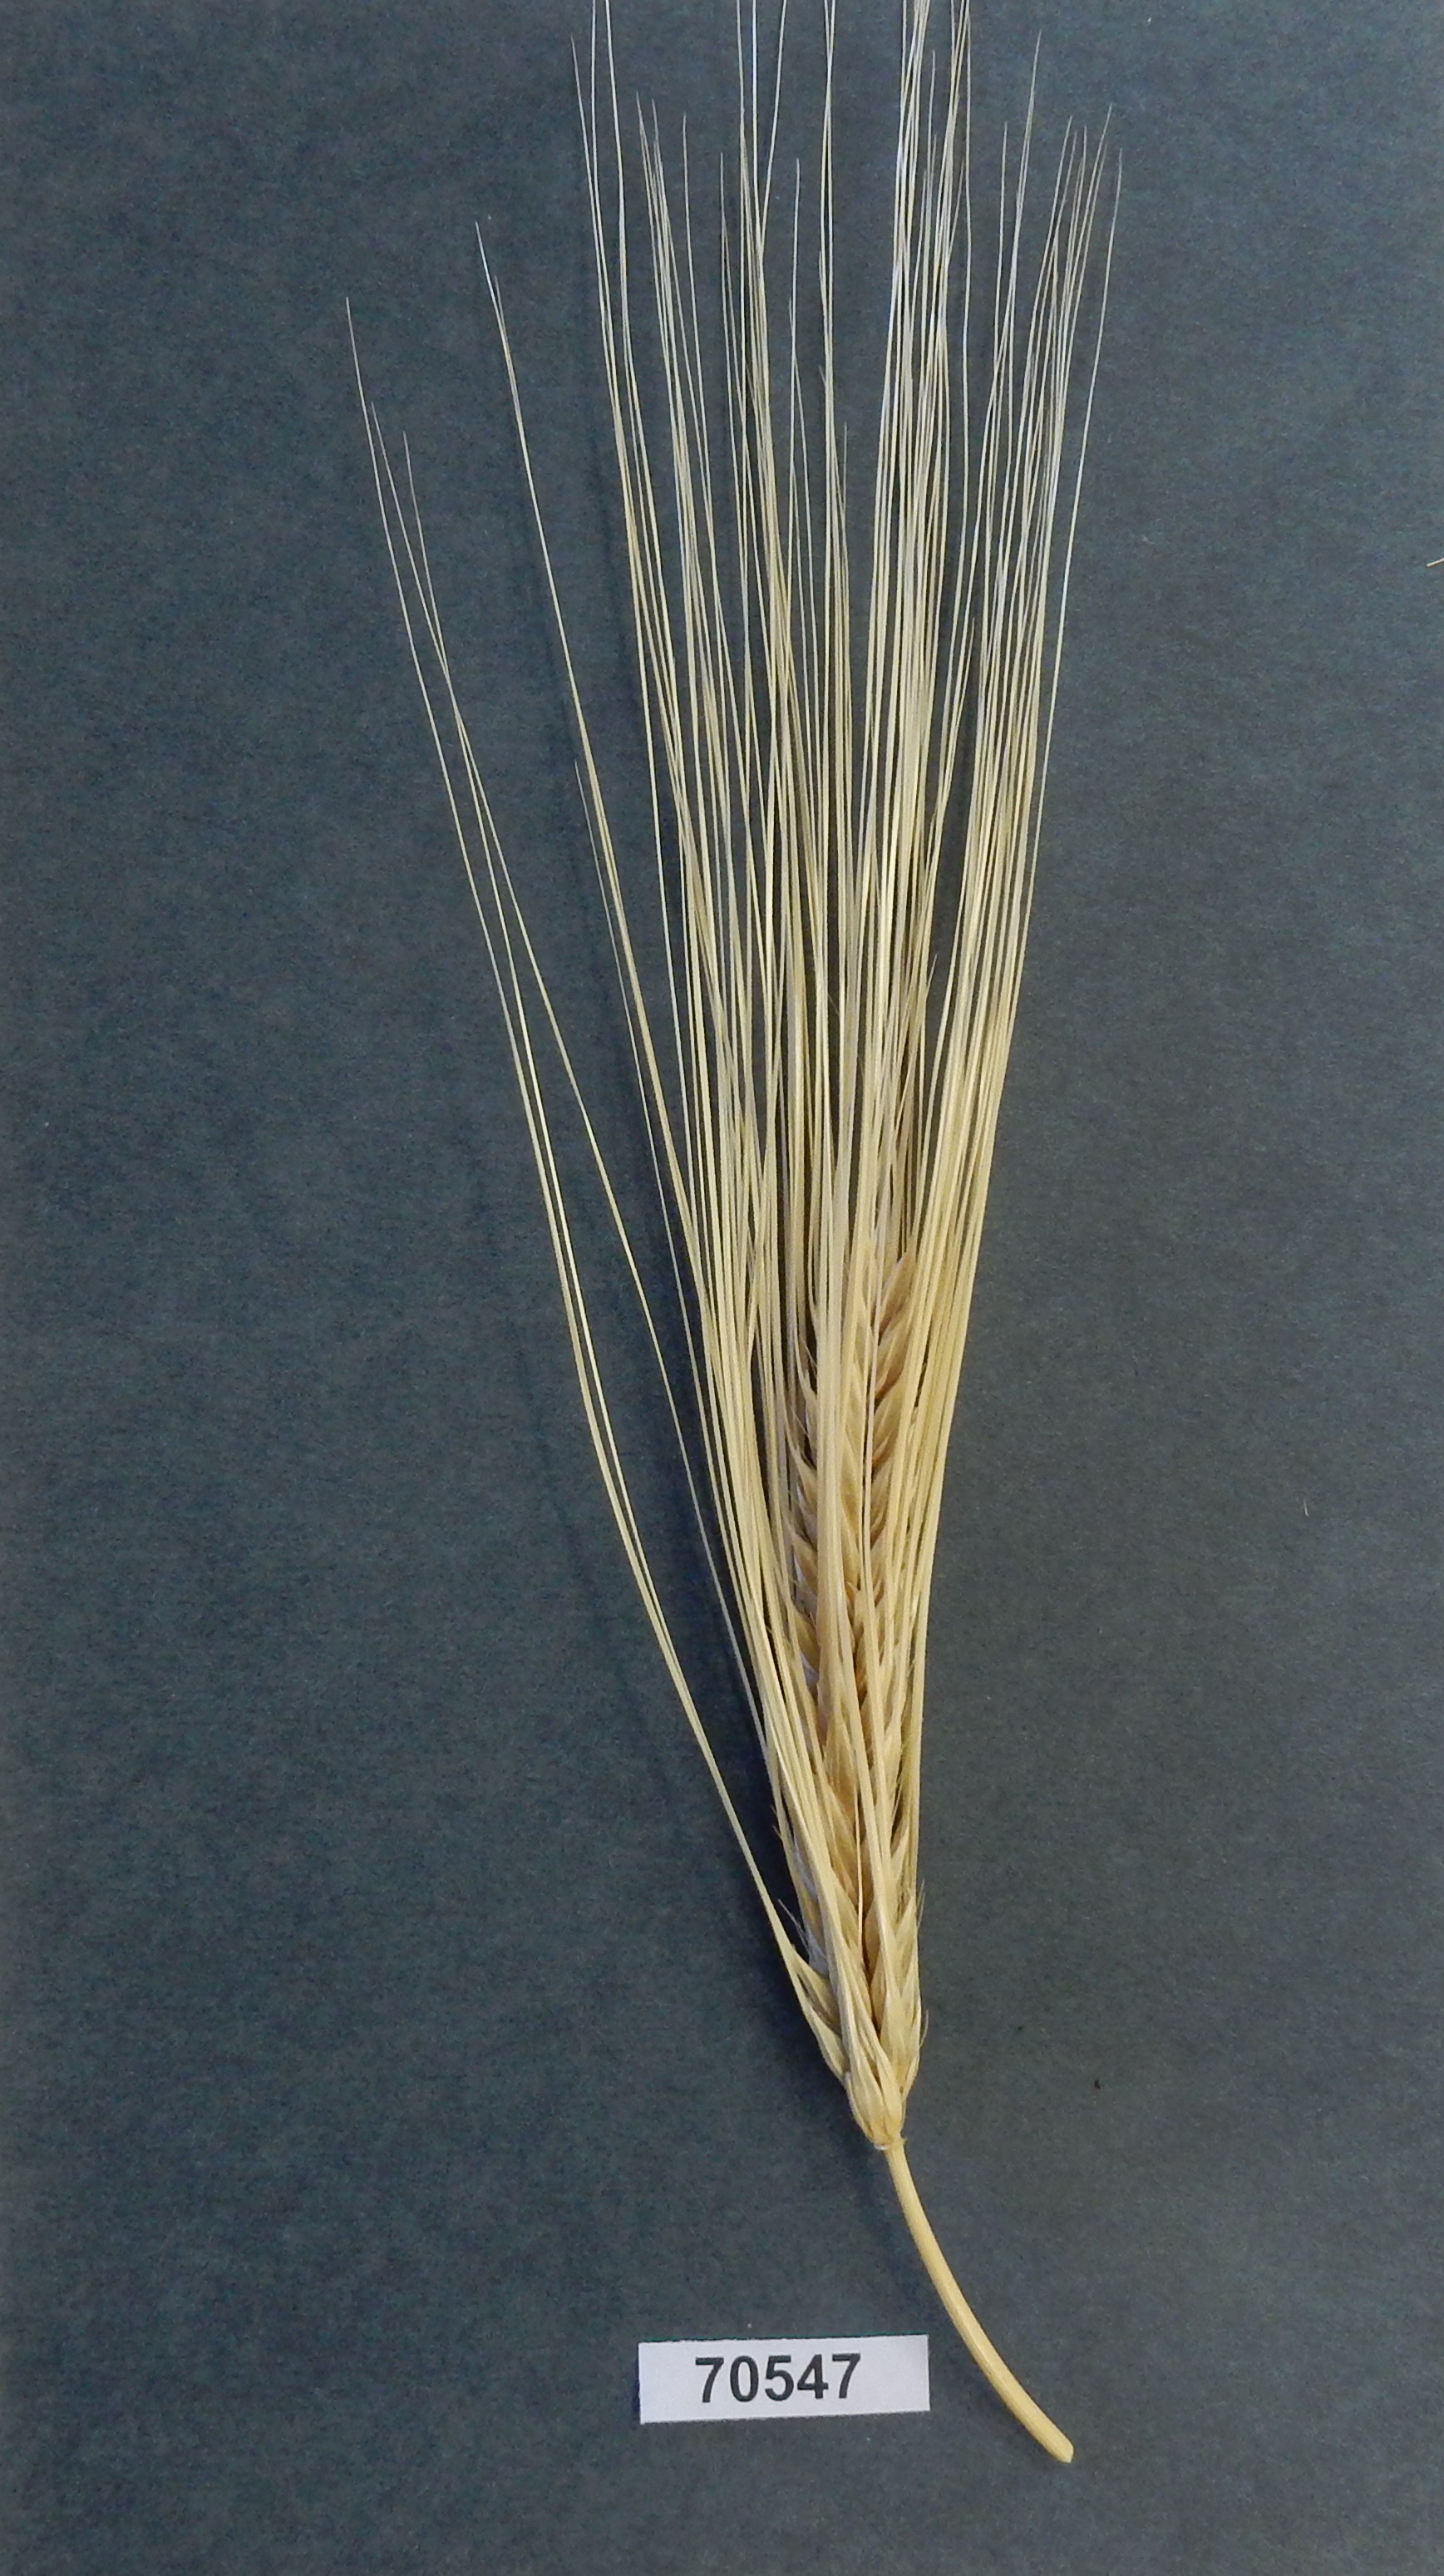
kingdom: Plantae
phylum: Tracheophyta
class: Liliopsida
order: Poales
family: Poaceae
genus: Hordeum
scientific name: Hordeum vulgare
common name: Barley
